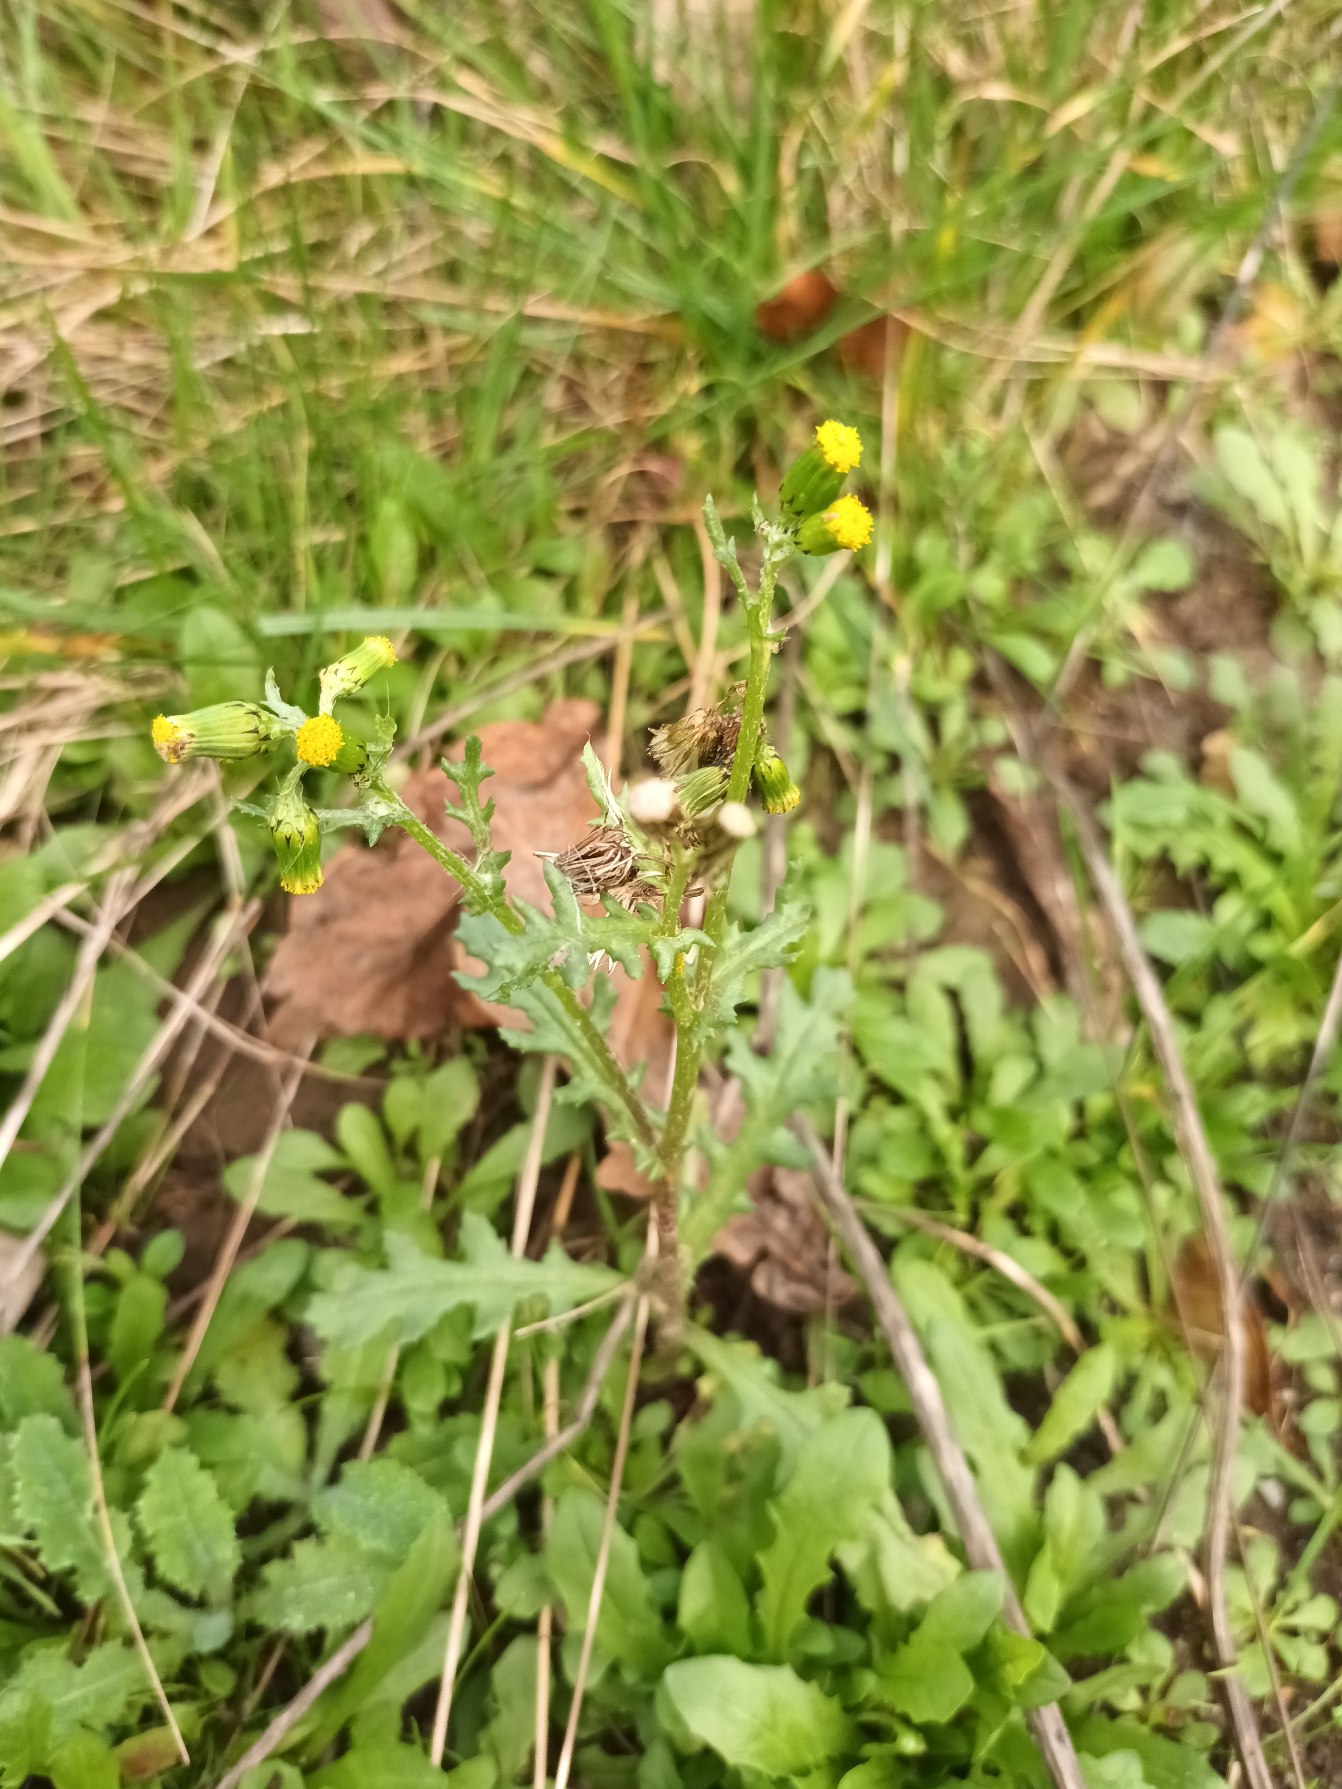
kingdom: Plantae
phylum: Tracheophyta
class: Magnoliopsida
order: Asterales
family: Asteraceae
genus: Senecio
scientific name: Senecio vulgaris
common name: Almindelig brandbæger
